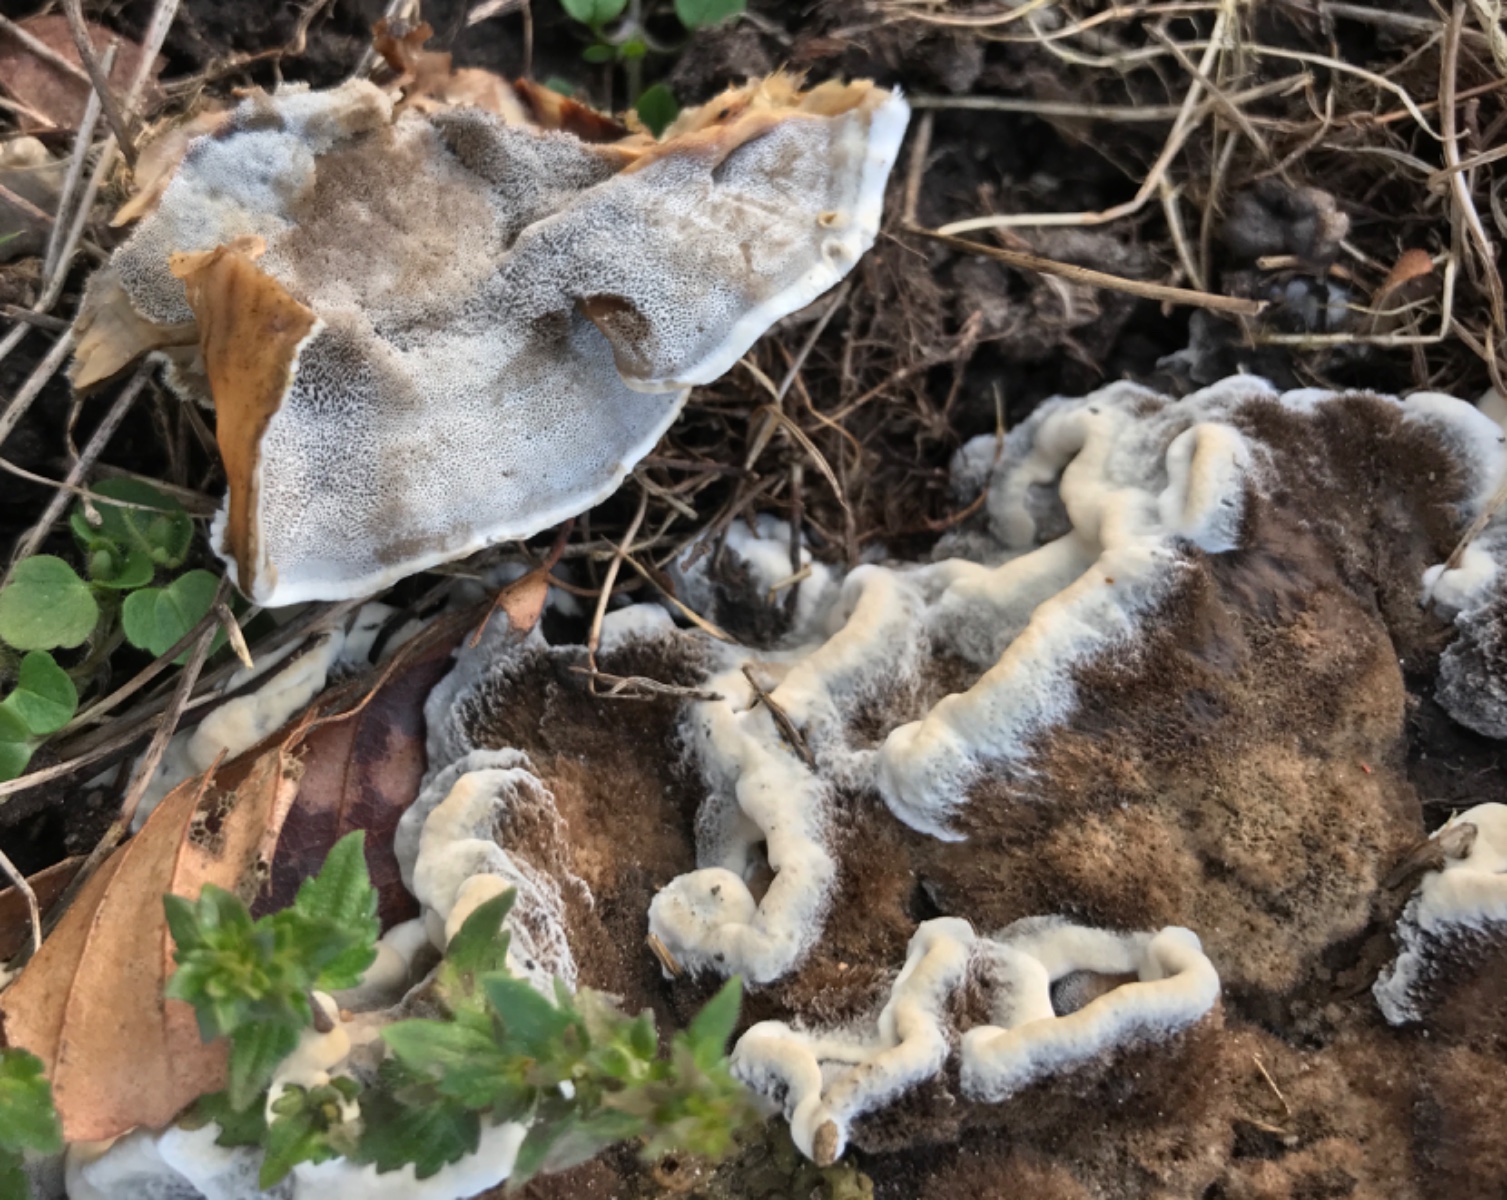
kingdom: Fungi
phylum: Basidiomycota
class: Agaricomycetes
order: Polyporales
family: Phanerochaetaceae
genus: Bjerkandera
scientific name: Bjerkandera adusta
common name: sveden sodporesvamp
